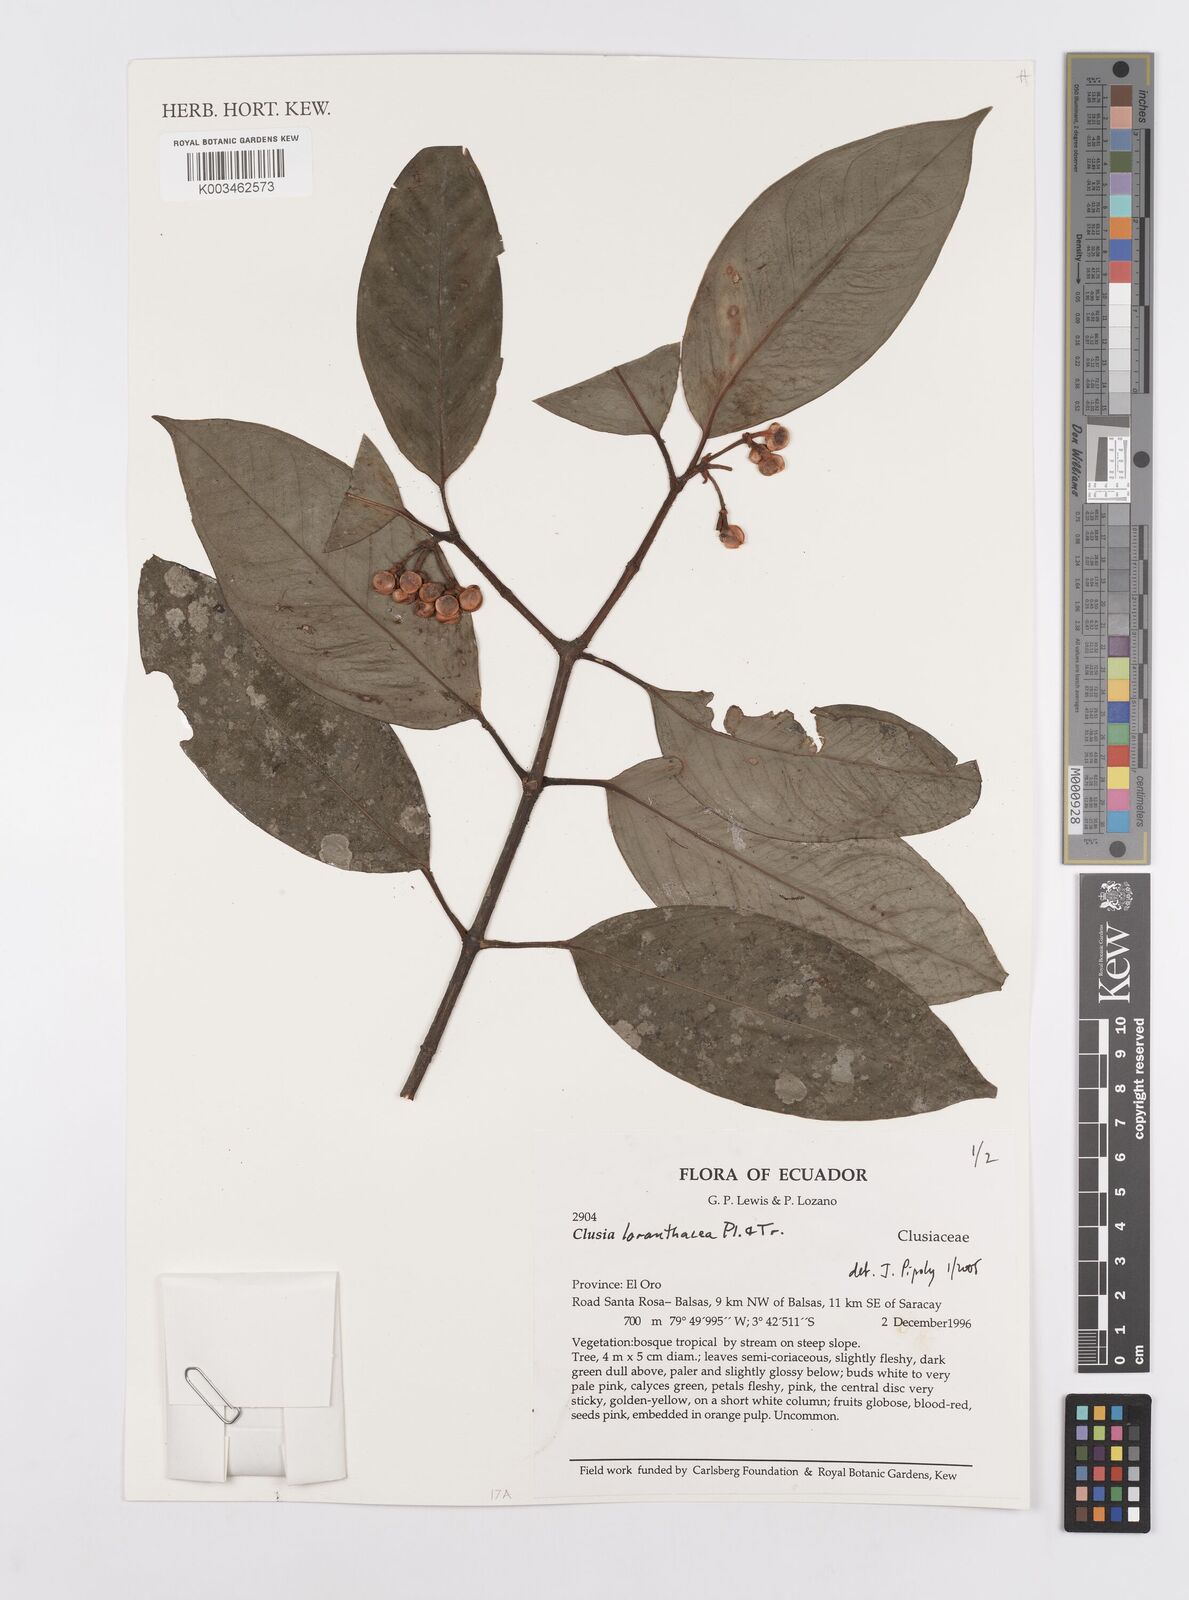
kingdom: Plantae
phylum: Tracheophyta
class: Magnoliopsida
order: Malpighiales
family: Clusiaceae
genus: Clusia
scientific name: Clusia loranthacea
